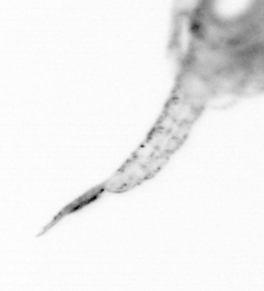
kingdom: Animalia
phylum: Arthropoda
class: Copepoda
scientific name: Copepoda
